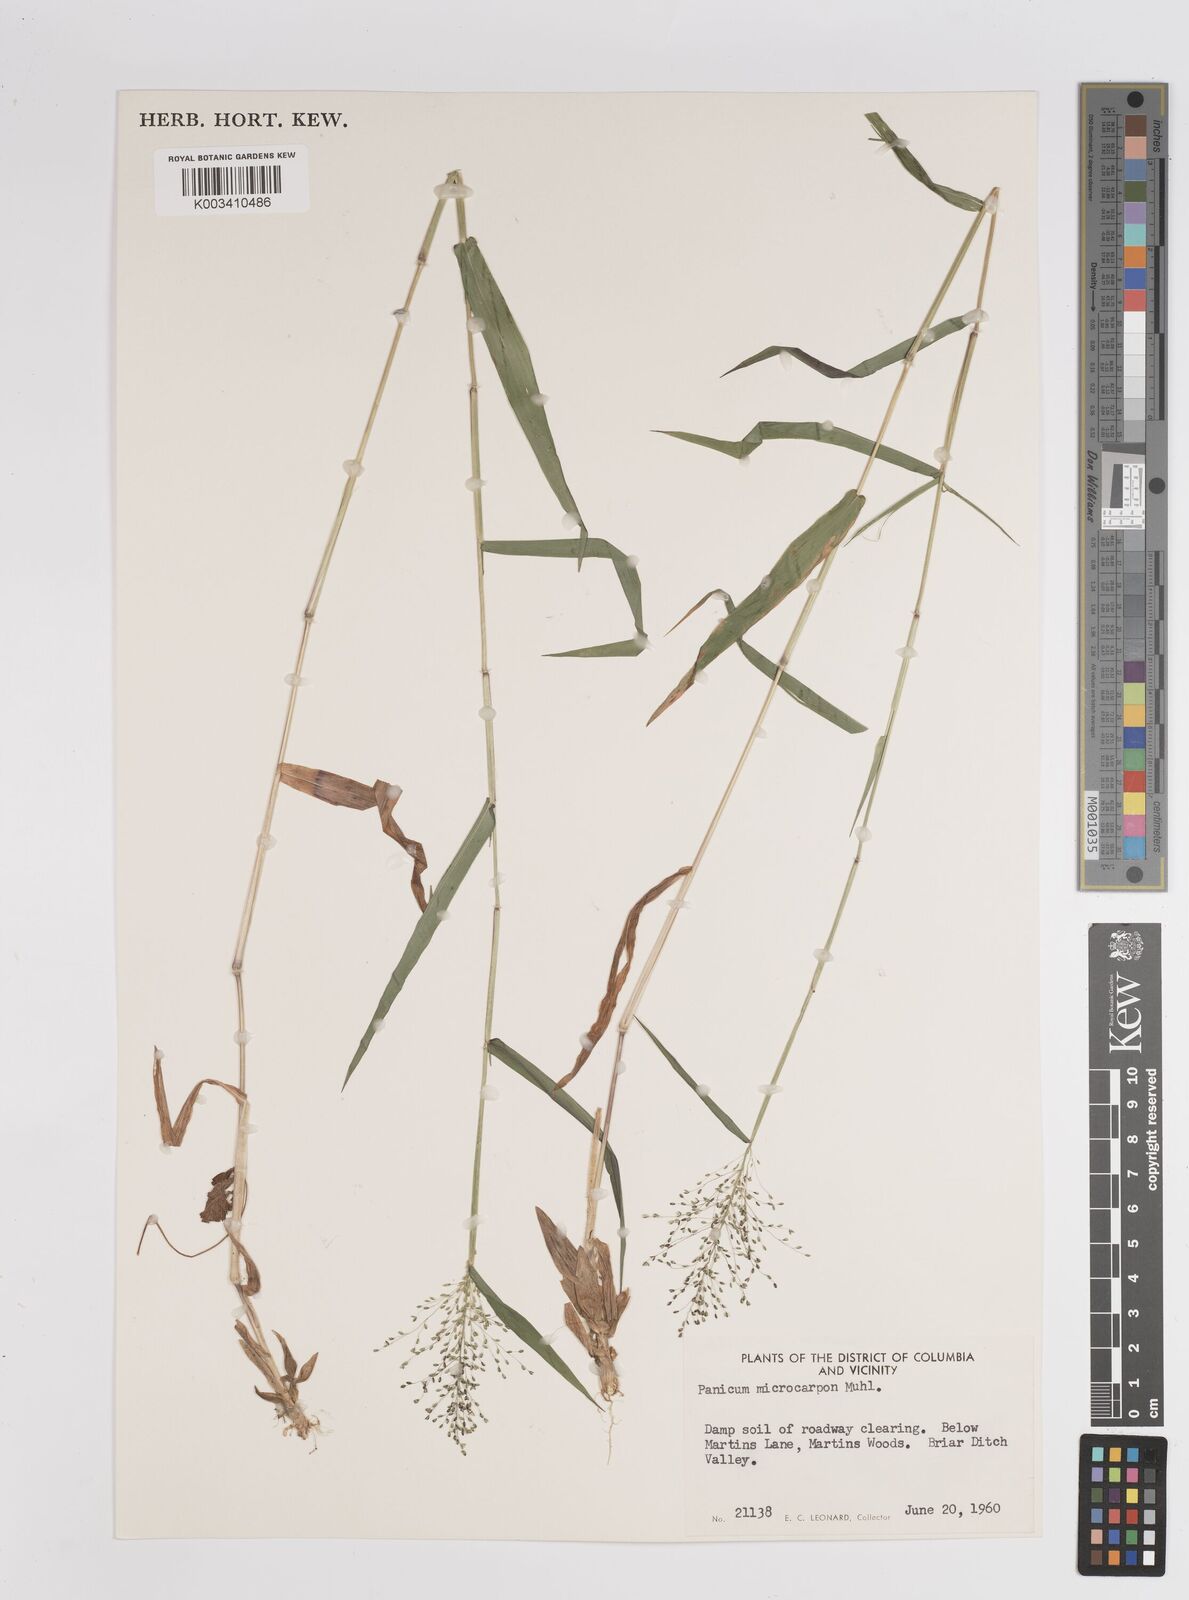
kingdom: Plantae
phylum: Tracheophyta
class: Liliopsida
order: Poales
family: Poaceae
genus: Dichanthelium
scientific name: Dichanthelium polyanthes
